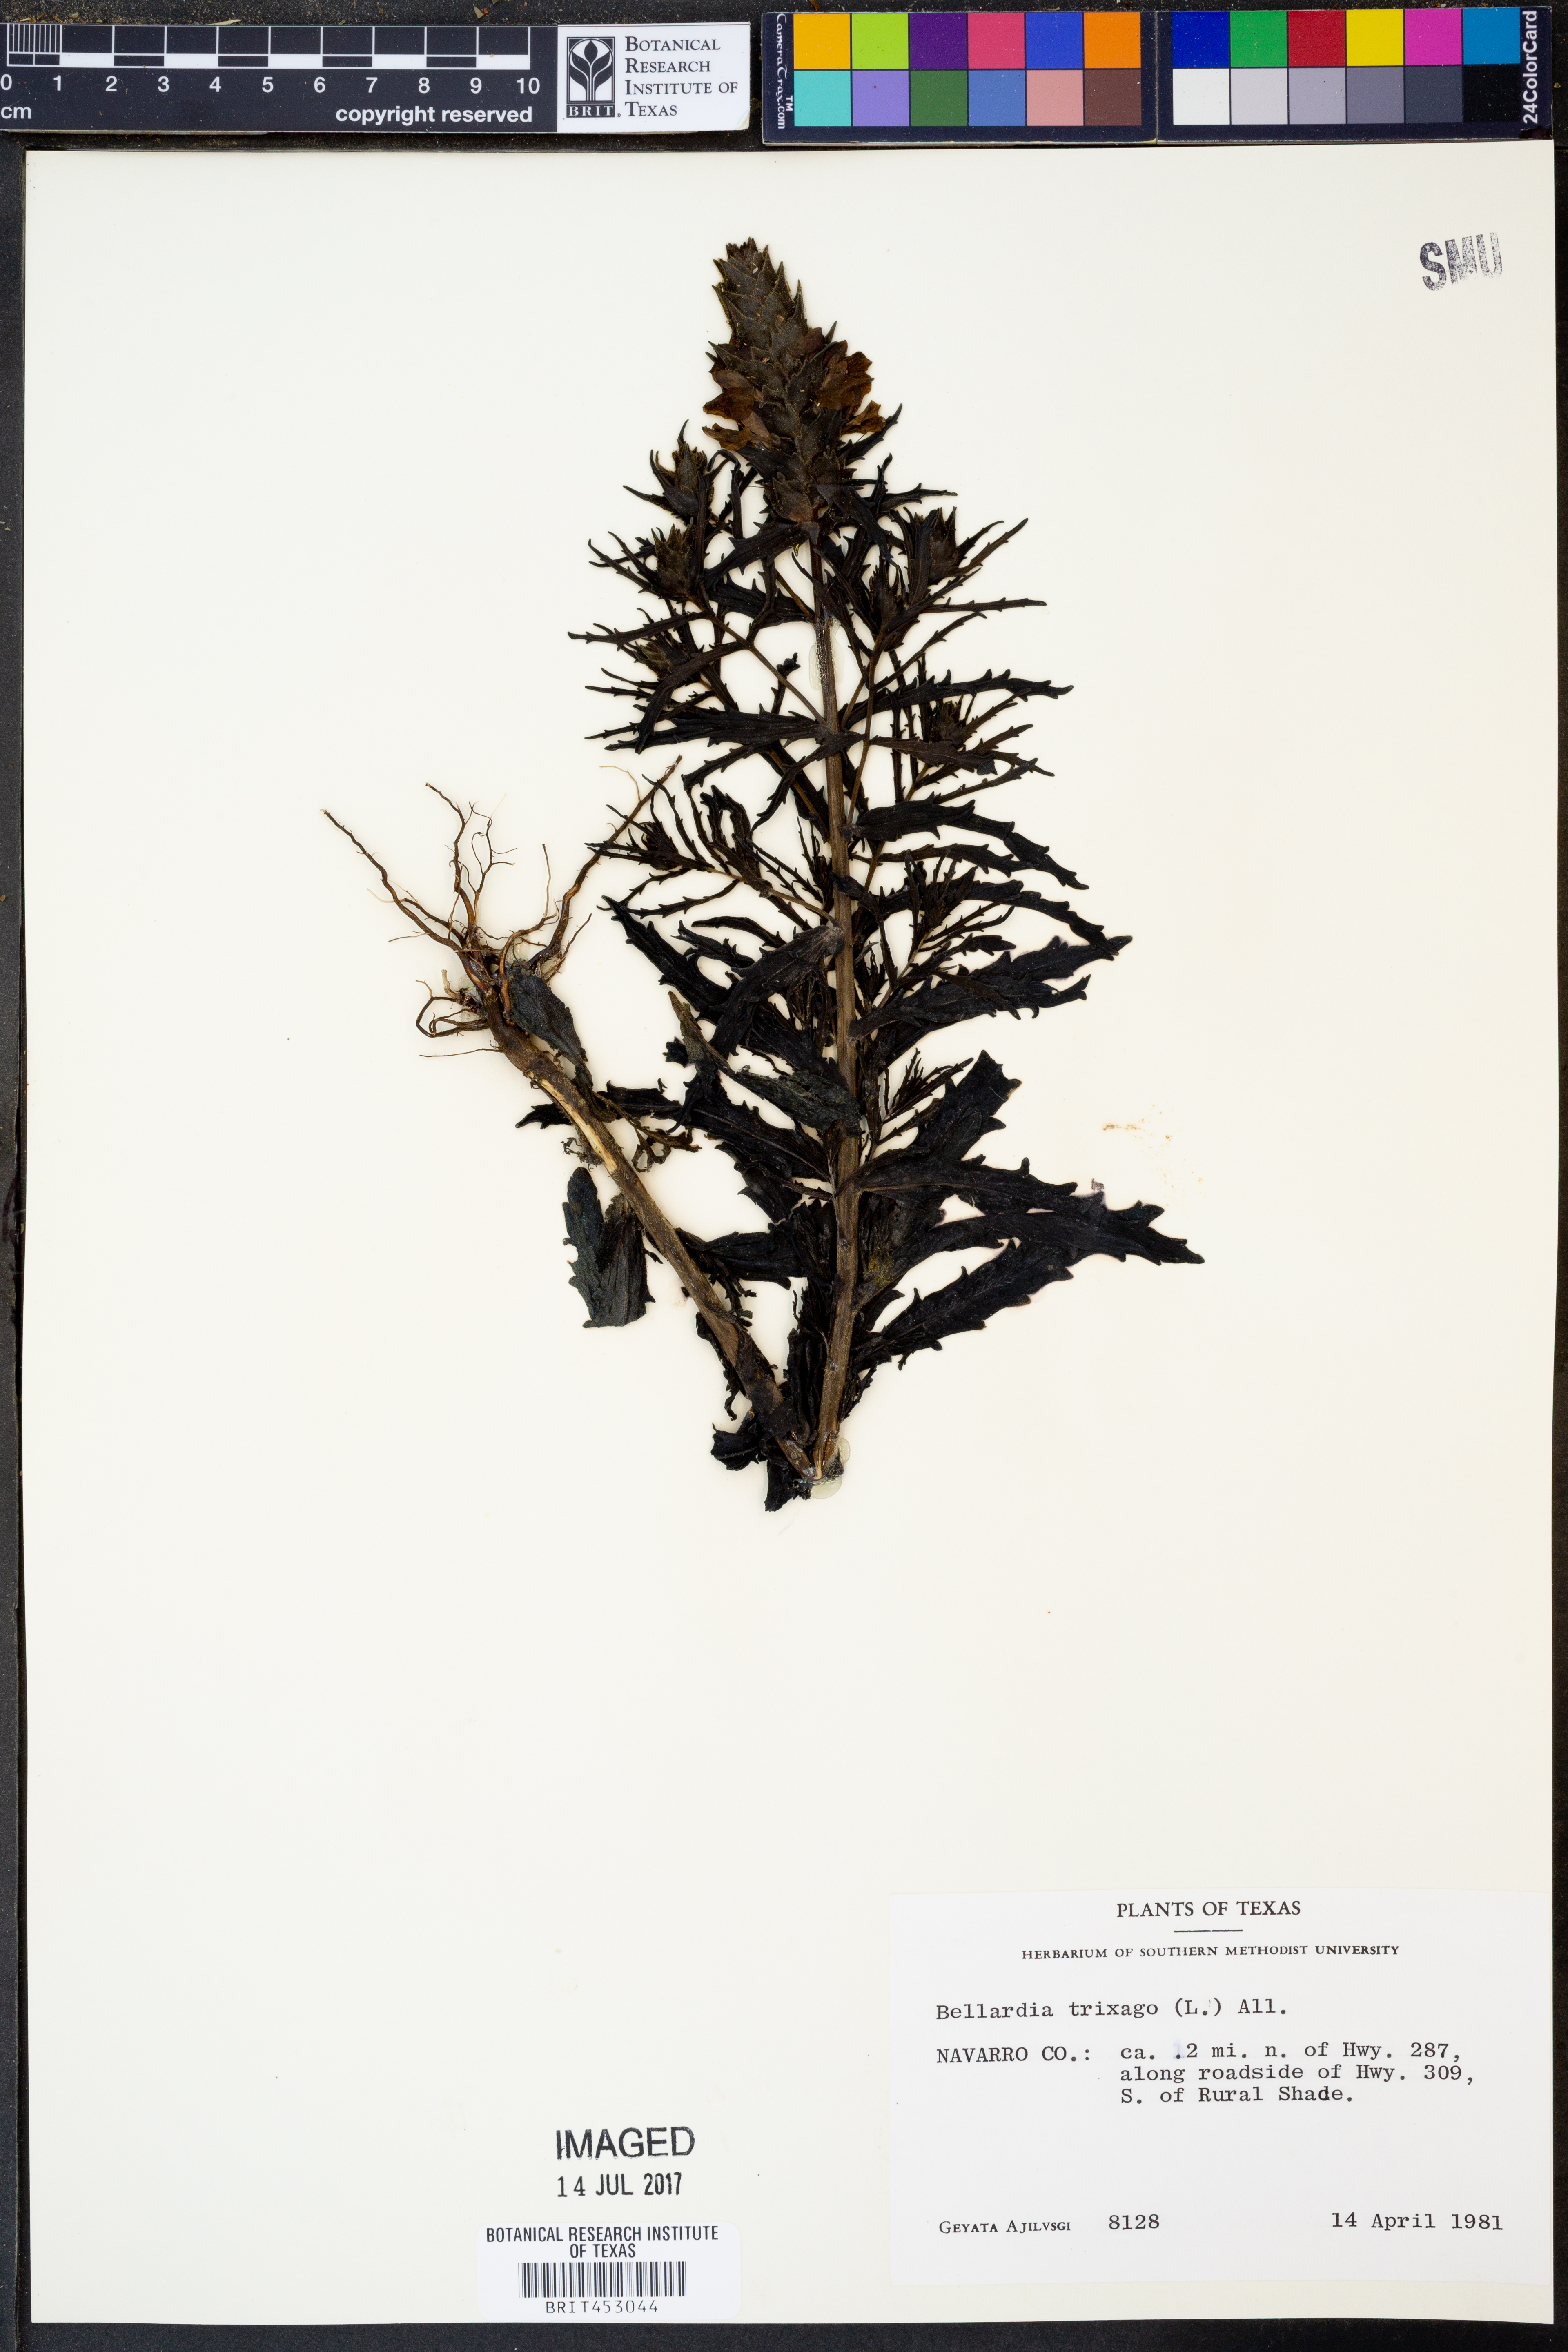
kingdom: Plantae
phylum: Tracheophyta
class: Magnoliopsida
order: Lamiales
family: Orobanchaceae
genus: Bellardia
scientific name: Bellardia trixago
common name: Mediterranean lineseed
